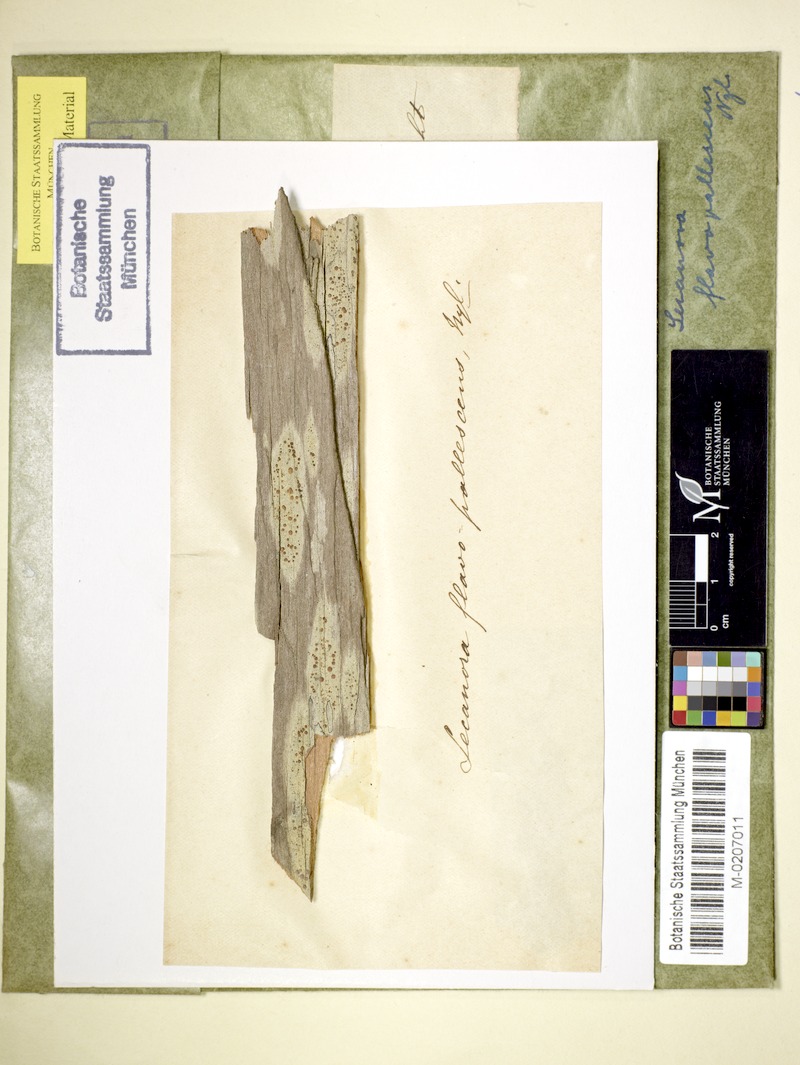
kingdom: Fungi
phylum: Ascomycota
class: Lecanoromycetes
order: Lecanorales
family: Lecanoraceae
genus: Lecanora
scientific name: Lecanora flavopallida
